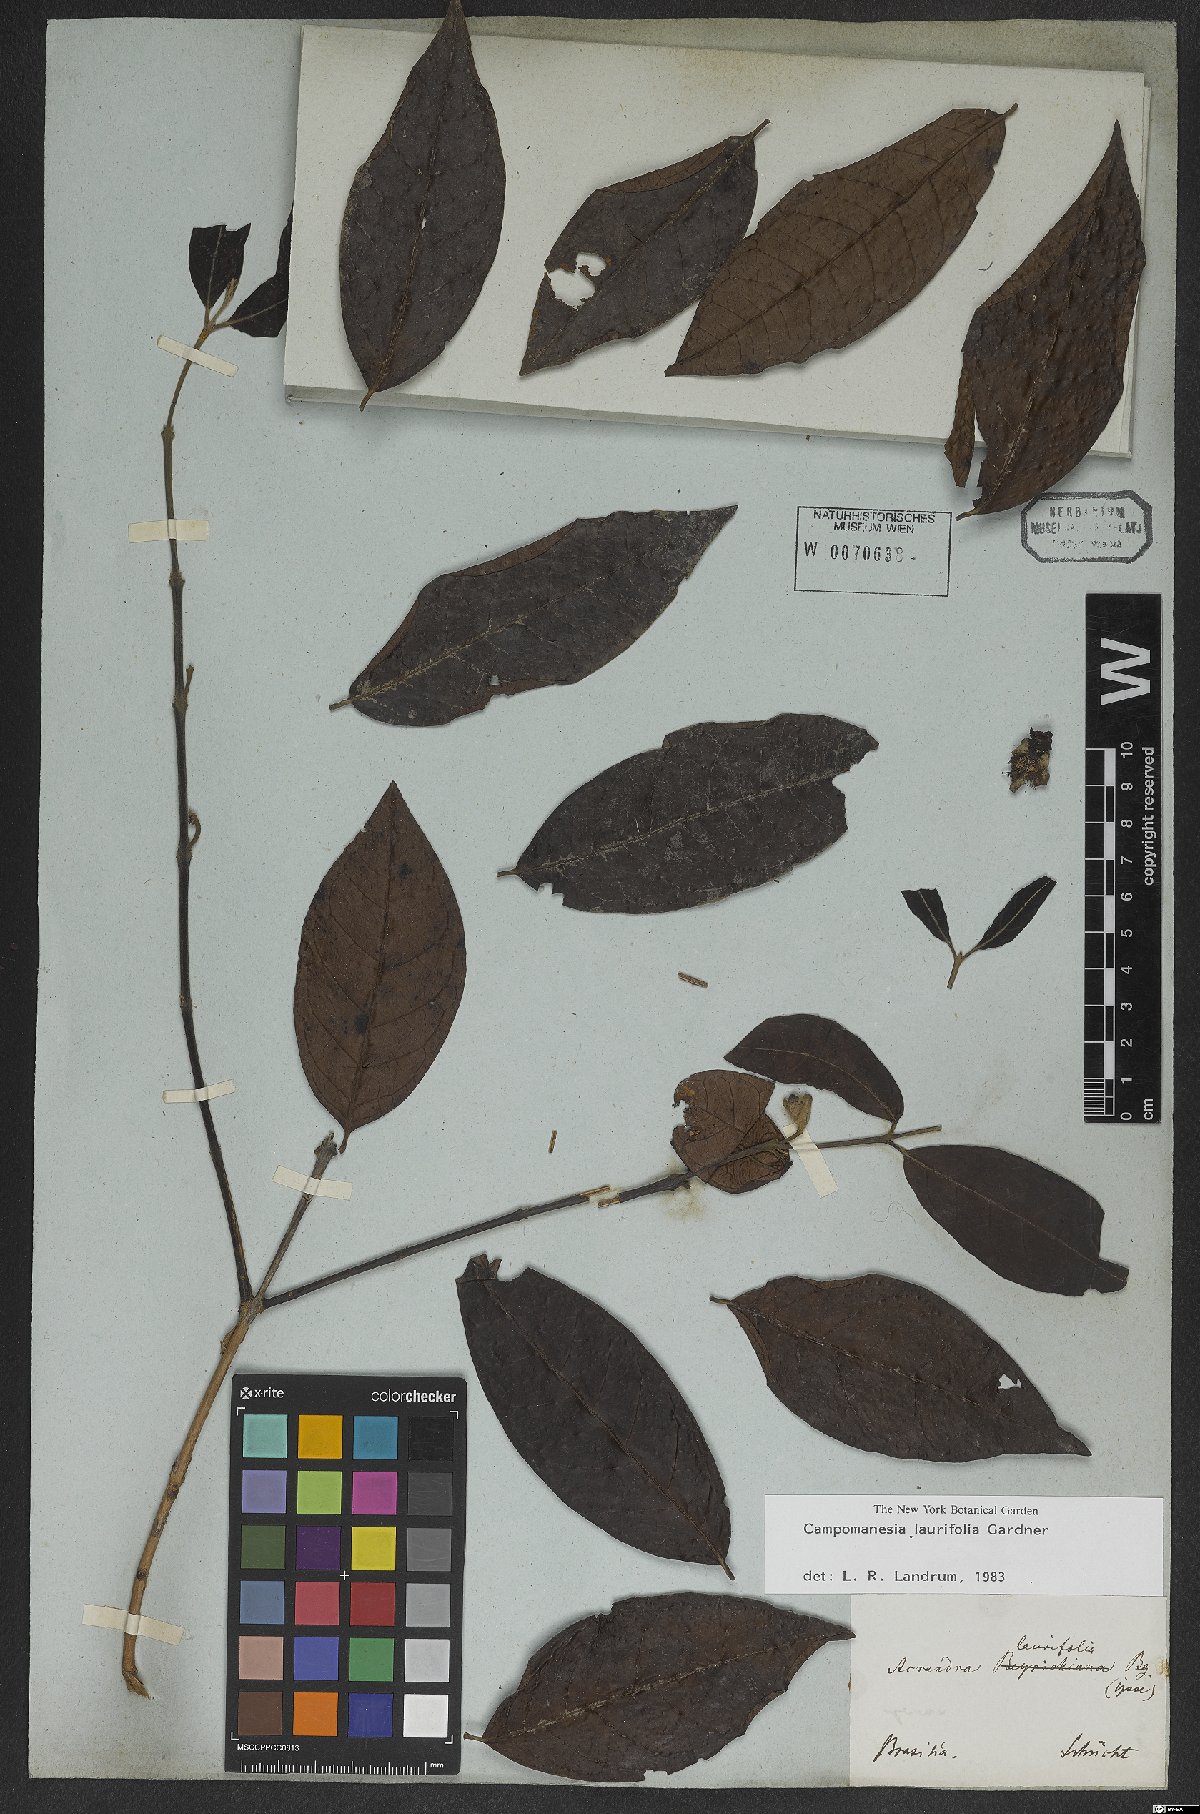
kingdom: Plantae
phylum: Tracheophyta
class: Magnoliopsida
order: Myrtales
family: Myrtaceae
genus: Campomanesia
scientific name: Campomanesia laurifolia
